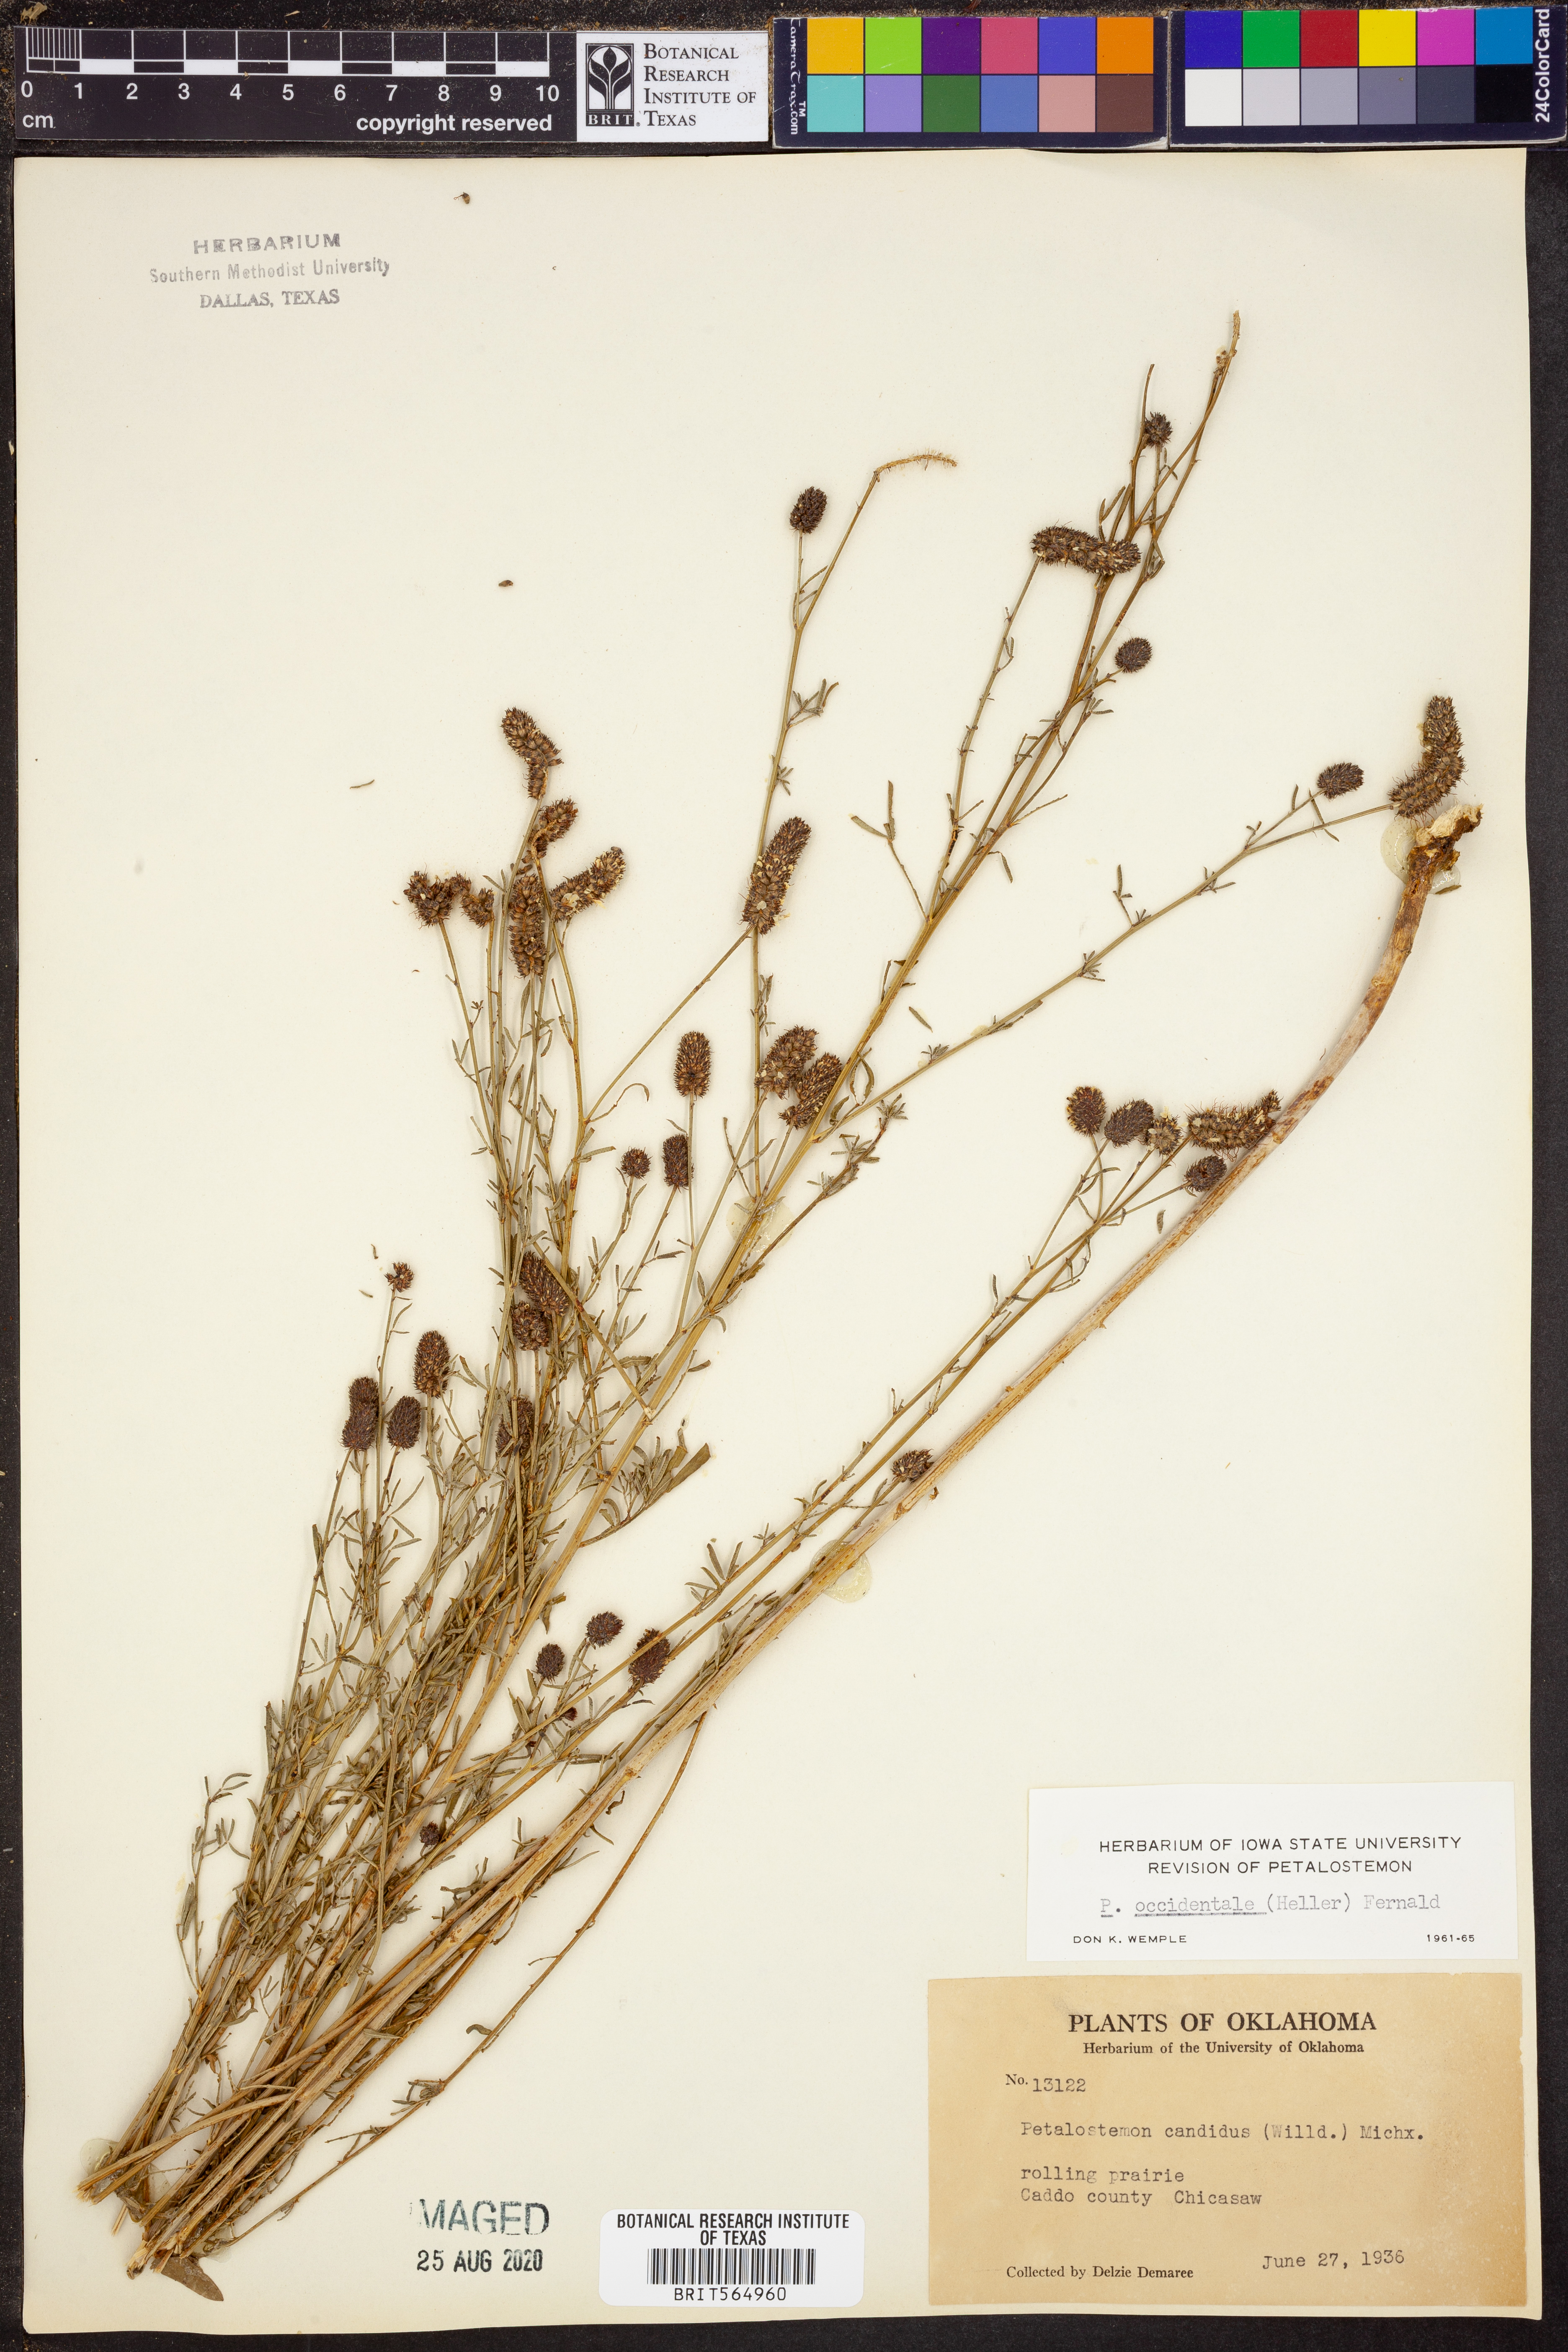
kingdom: Plantae
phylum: Tracheophyta
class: Magnoliopsida
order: Fabales
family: Fabaceae
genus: Dalea
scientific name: Dalea candida
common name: White prairie-clover
